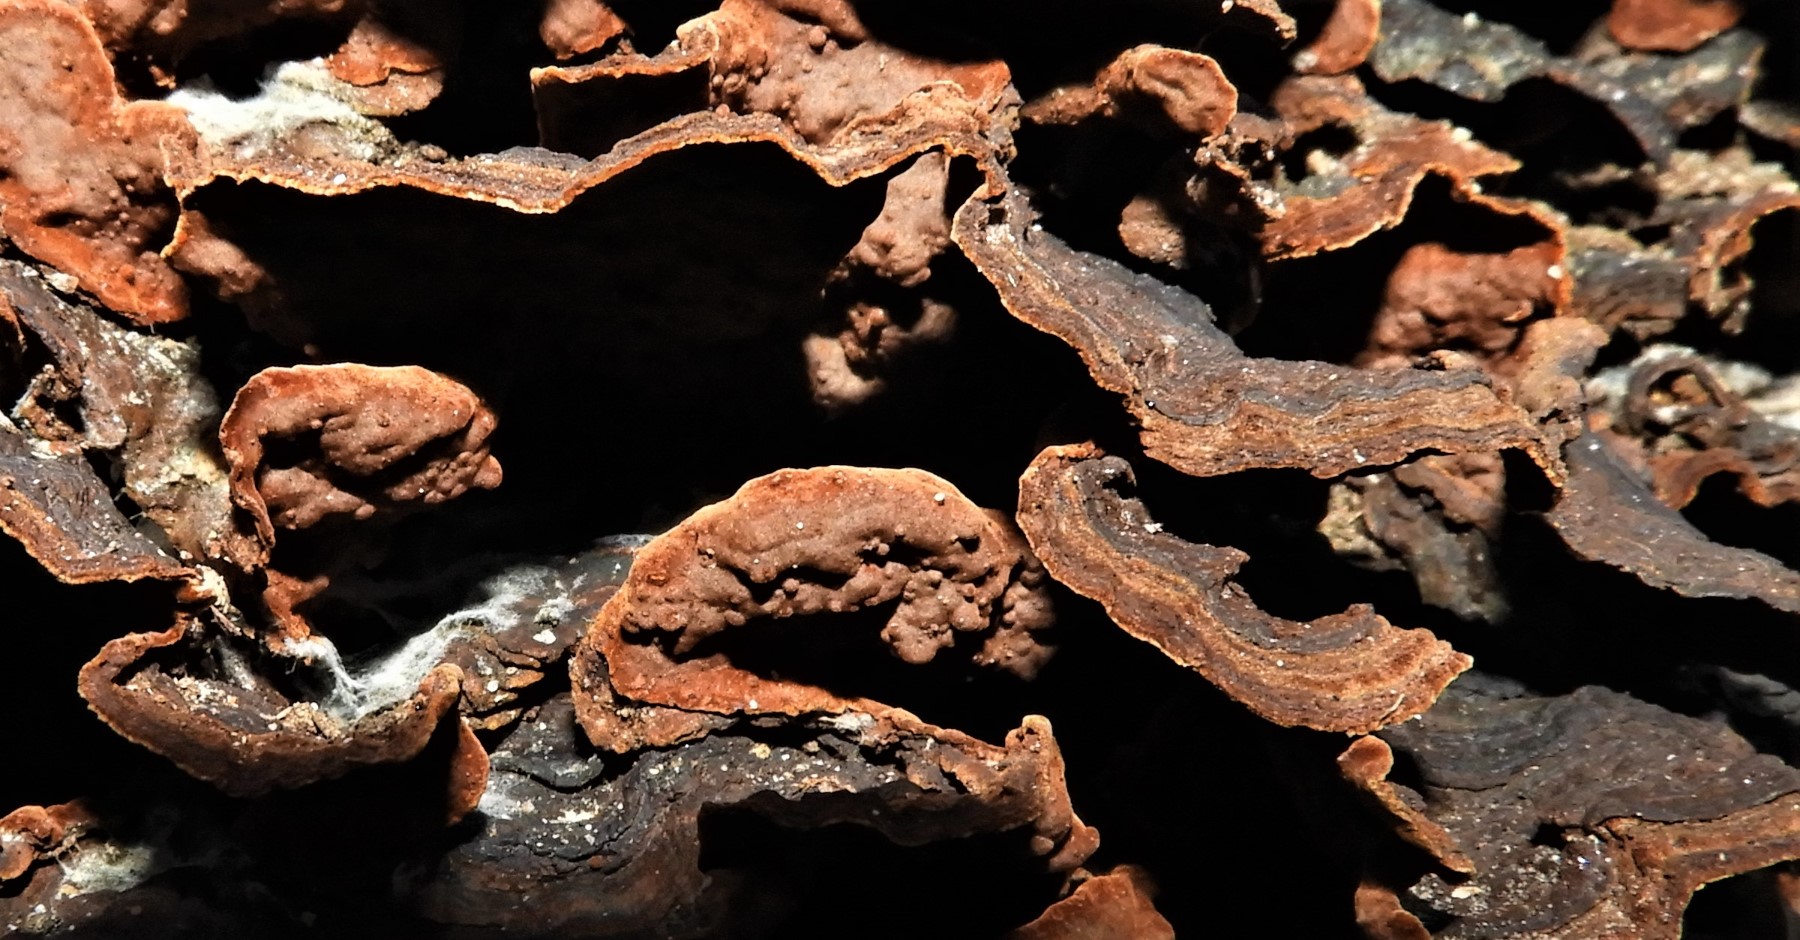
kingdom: Fungi
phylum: Basidiomycota
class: Agaricomycetes
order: Hymenochaetales
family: Hymenochaetaceae
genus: Hymenochaete
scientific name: Hymenochaete rubiginosa
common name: stiv ruslædersvamp
